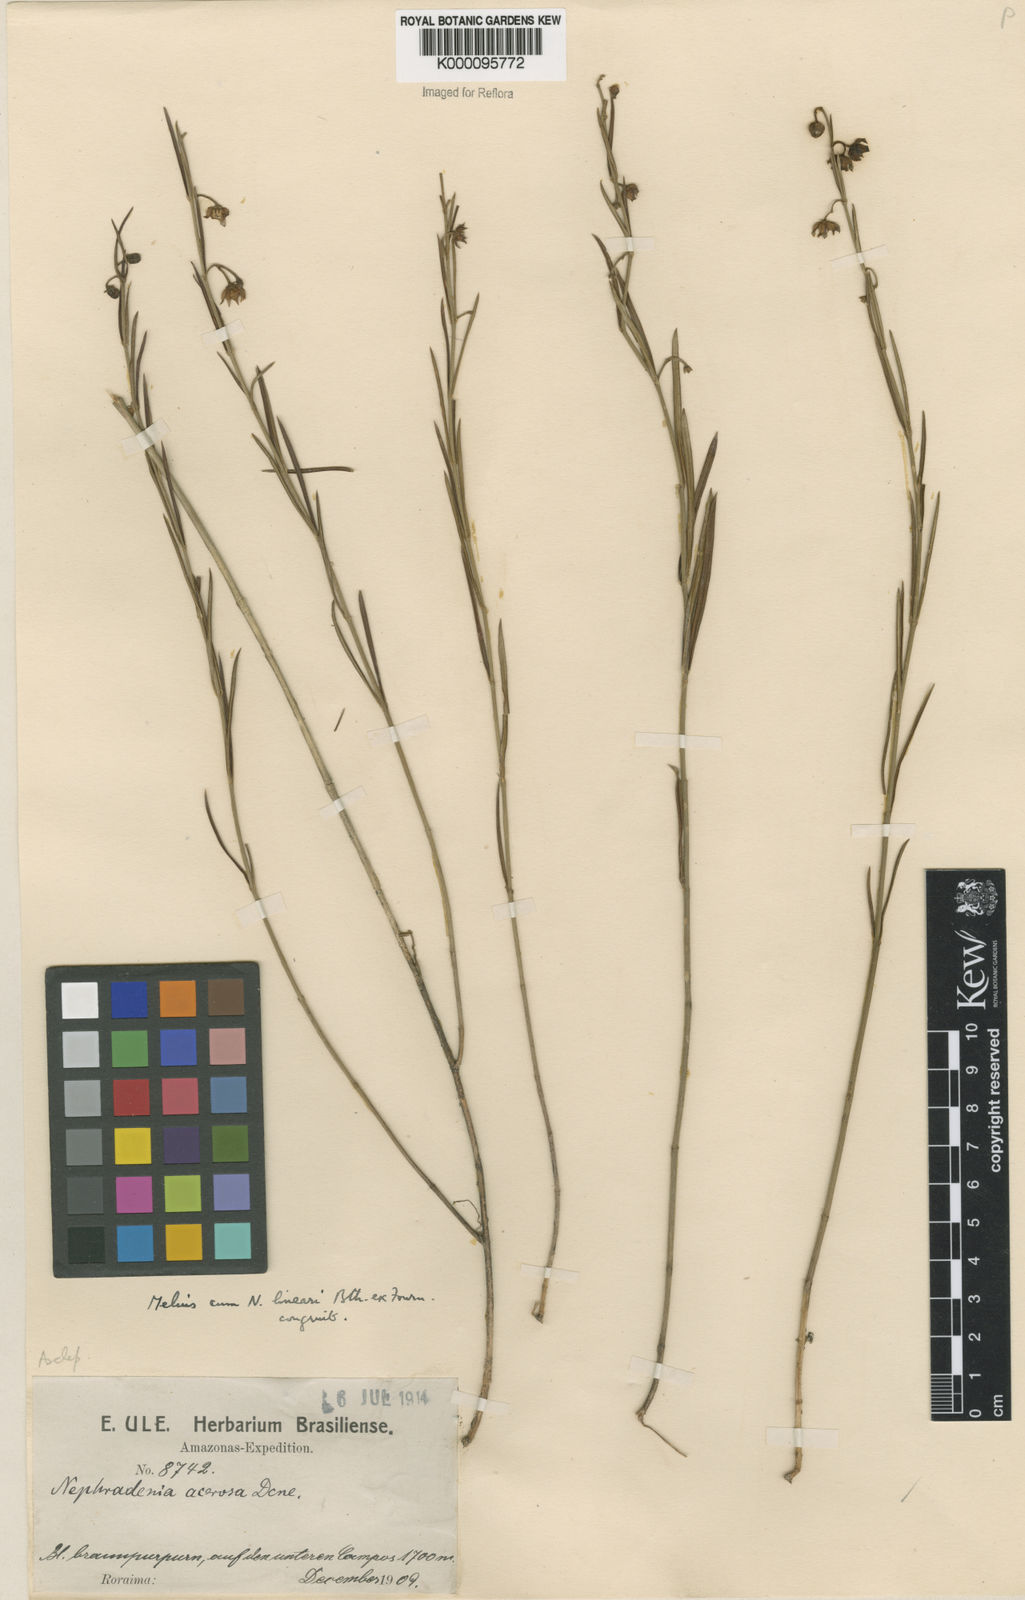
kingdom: Plantae
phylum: Tracheophyta
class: Magnoliopsida
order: Gentianales
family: Apocynaceae
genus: Blepharodon
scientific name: Blepharodon lineare
